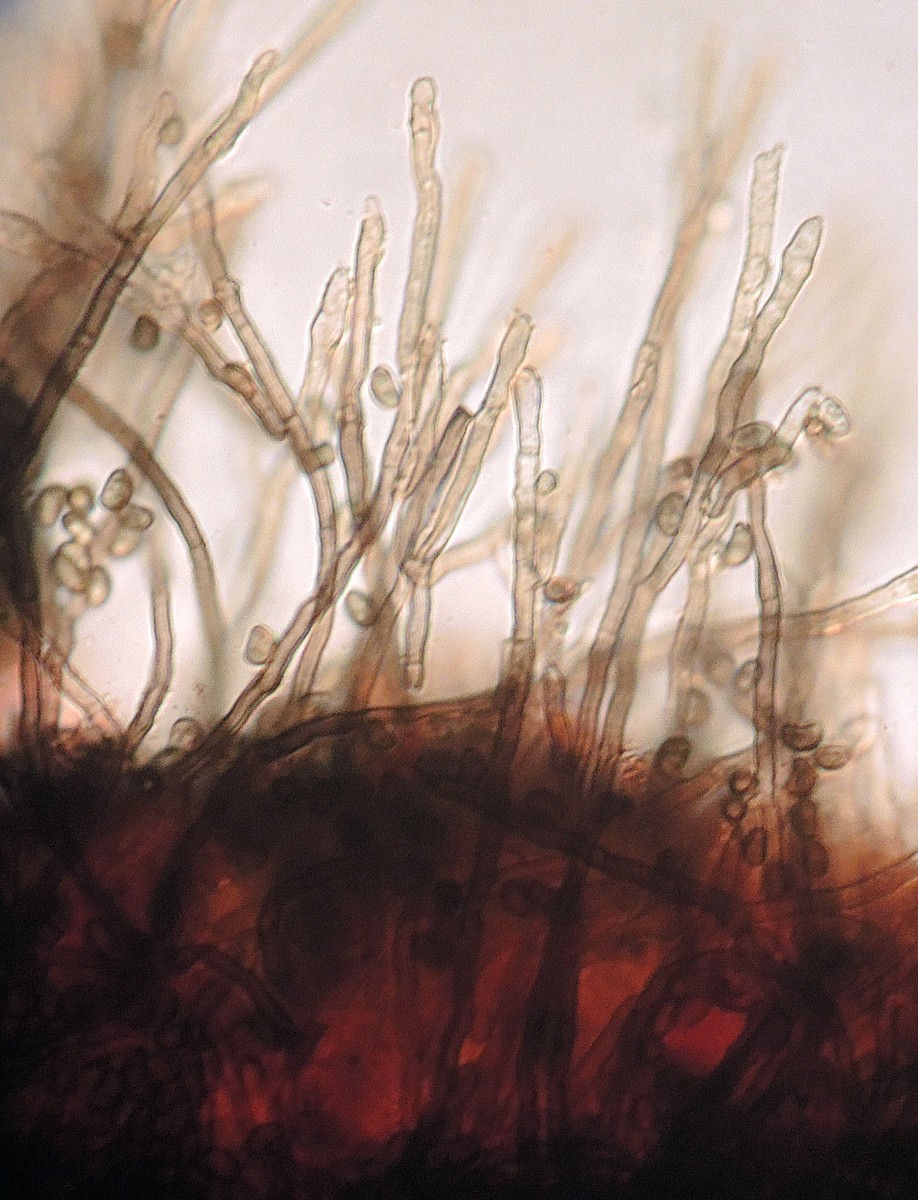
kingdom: Fungi
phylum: Ascomycota
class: Sordariomycetes
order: Xylariales
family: Xylariaceae
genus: Virgaria
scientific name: Virgaria nigra
